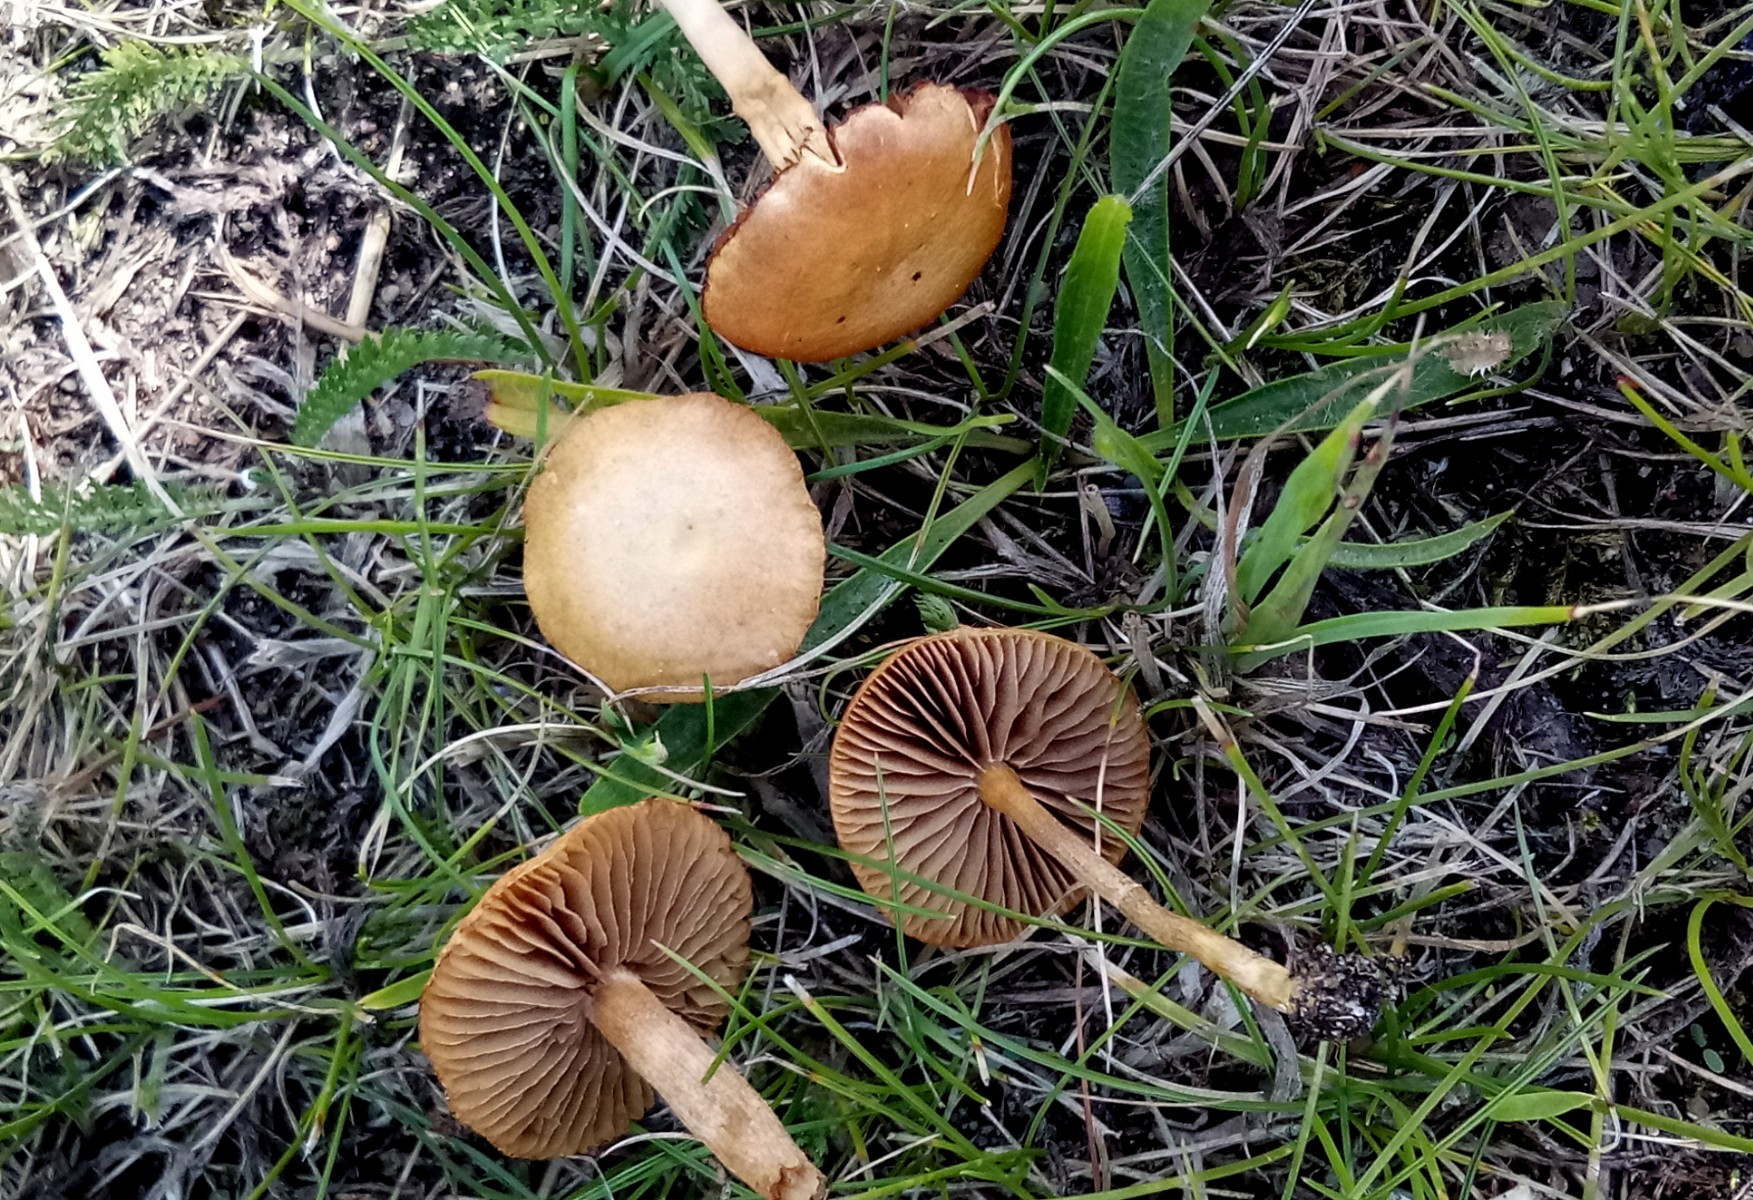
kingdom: Fungi
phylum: Basidiomycota
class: Agaricomycetes
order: Agaricales
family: Strophariaceae
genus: Agrocybe
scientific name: Agrocybe pediades
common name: almindelig agerhat
